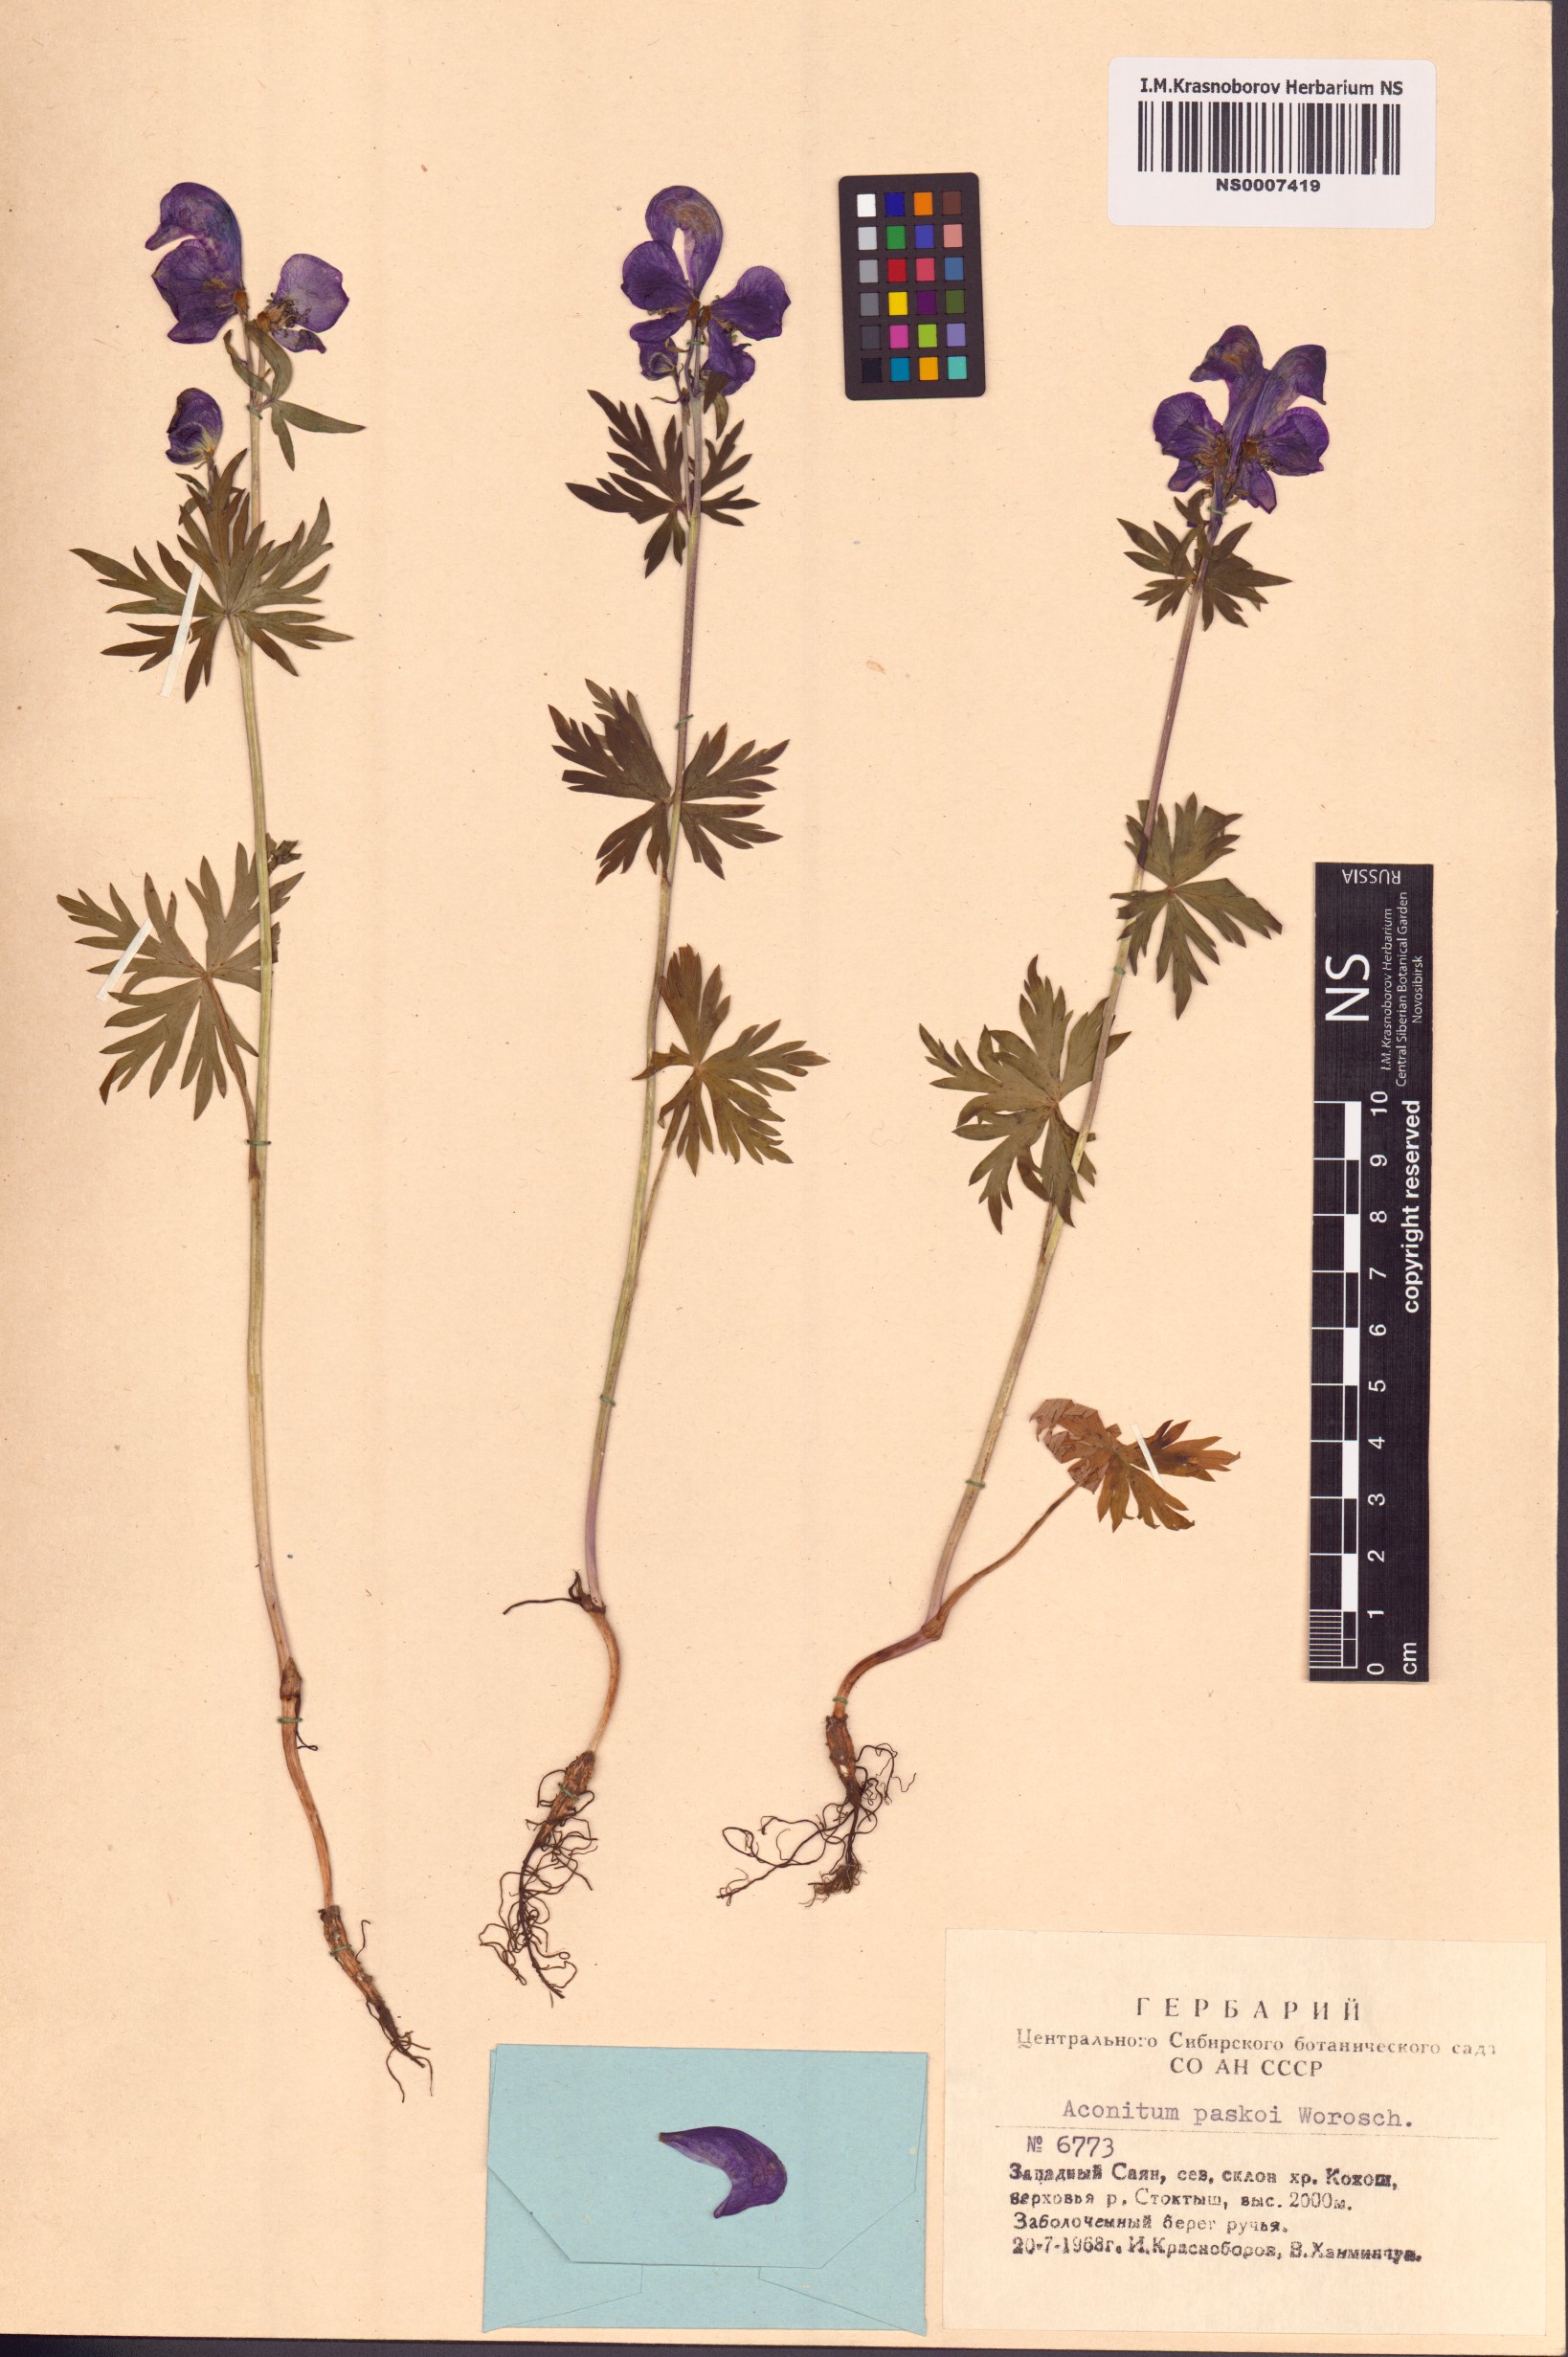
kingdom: Plantae
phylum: Tracheophyta
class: Magnoliopsida
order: Ranunculales
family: Ranunculaceae
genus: Aconitum
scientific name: Aconitum pascoi
